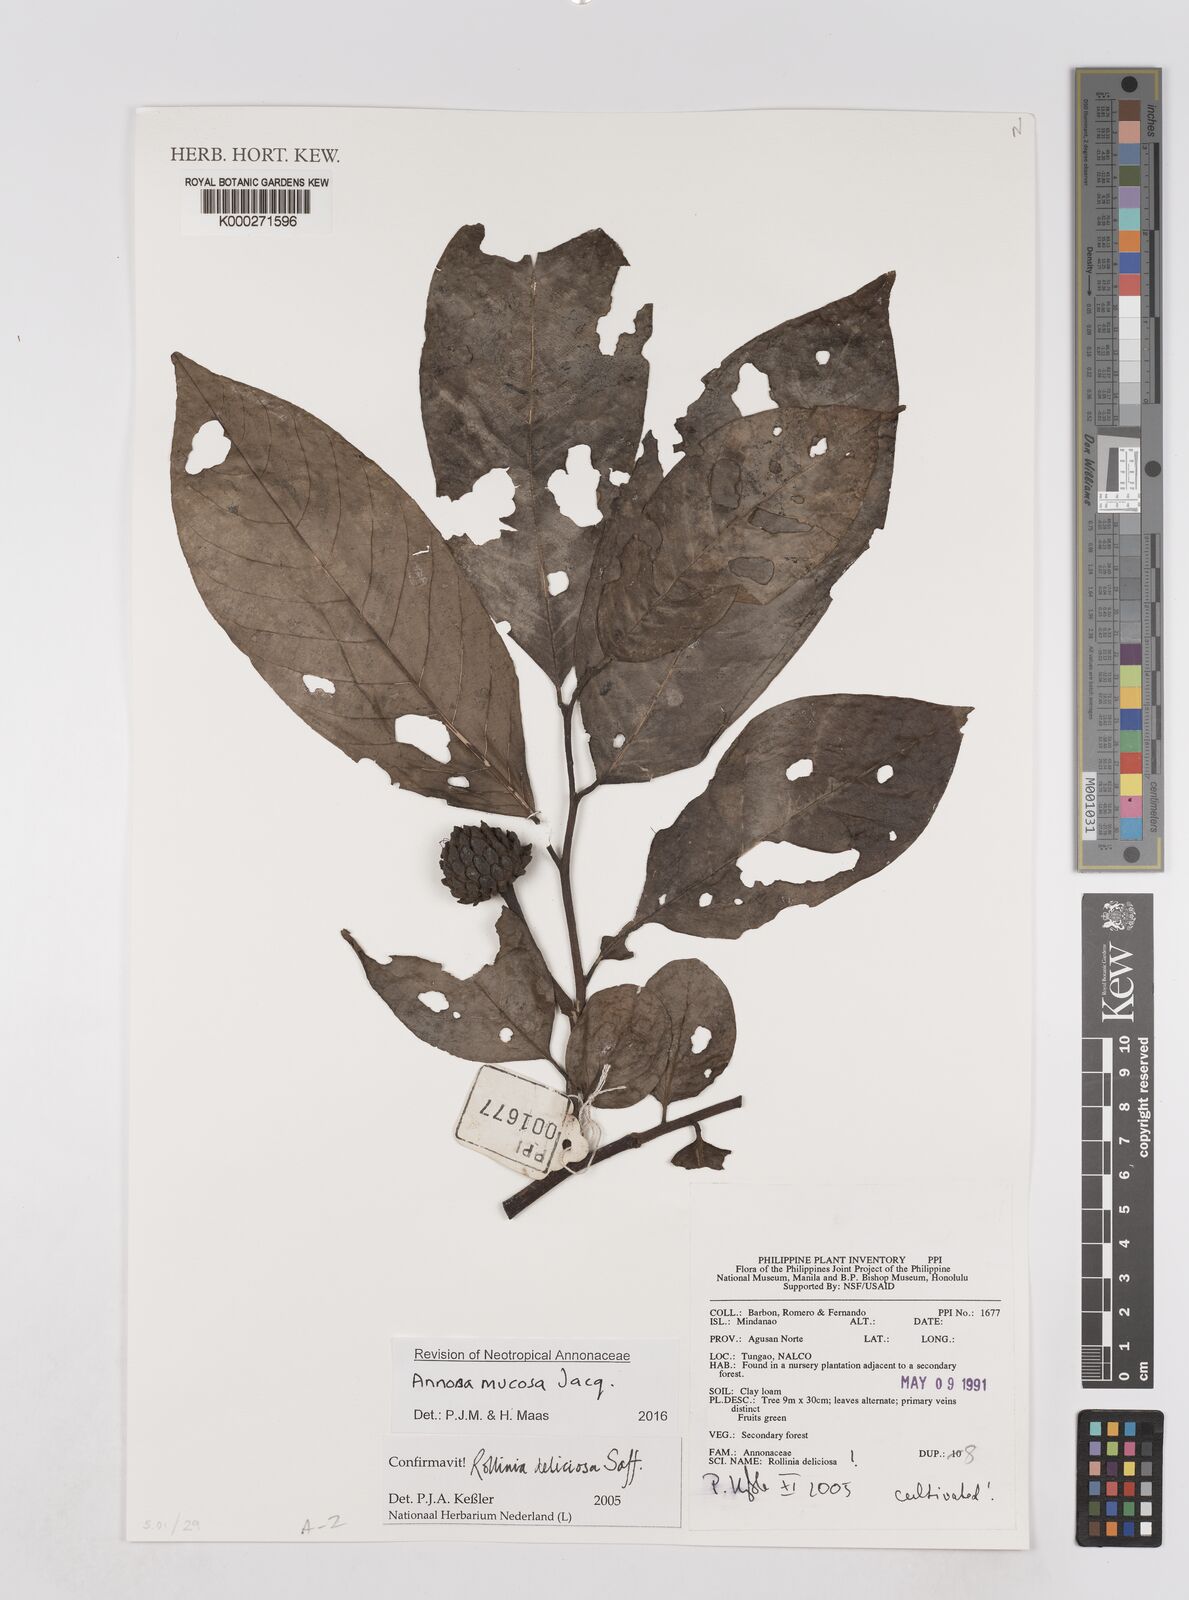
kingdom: Plantae
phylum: Tracheophyta
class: Magnoliopsida
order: Magnoliales
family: Annonaceae
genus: Annona
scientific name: Annona mucosa
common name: Sugar apple
